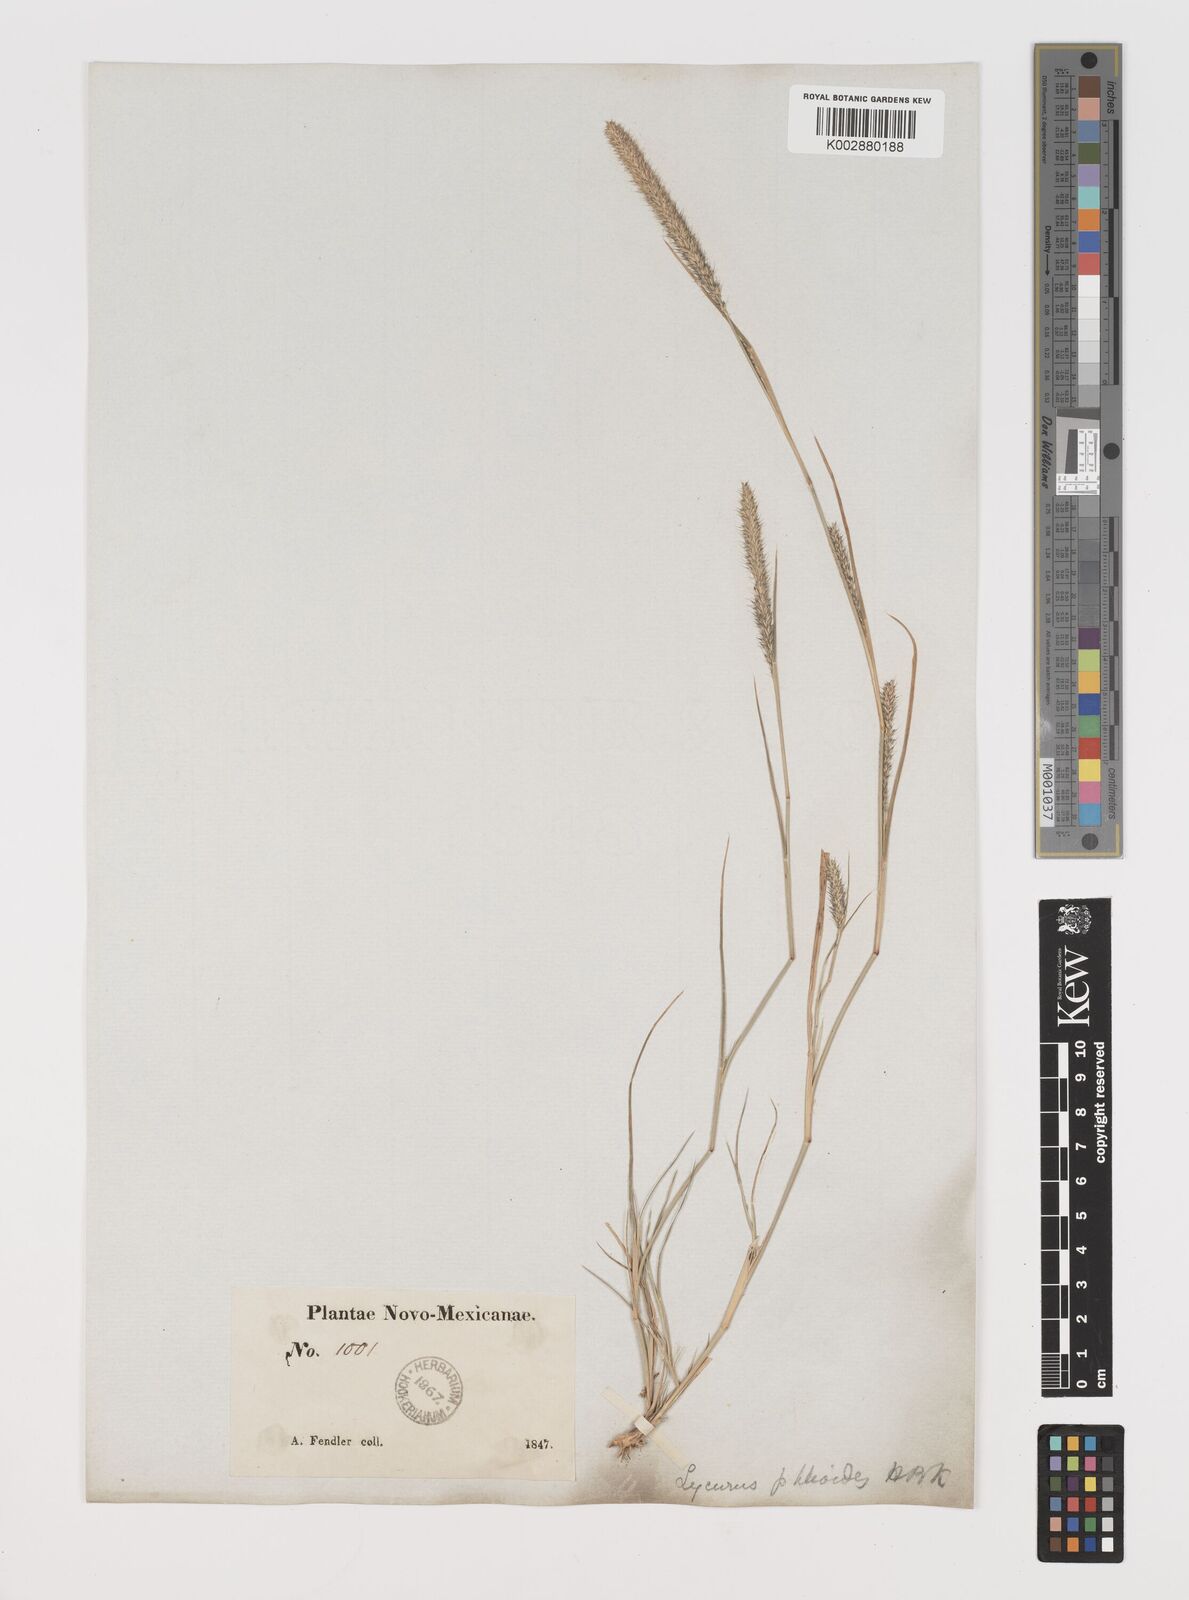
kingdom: Plantae
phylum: Tracheophyta
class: Liliopsida
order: Poales
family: Poaceae
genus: Muhlenbergia
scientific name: Muhlenbergia alopecuroides
